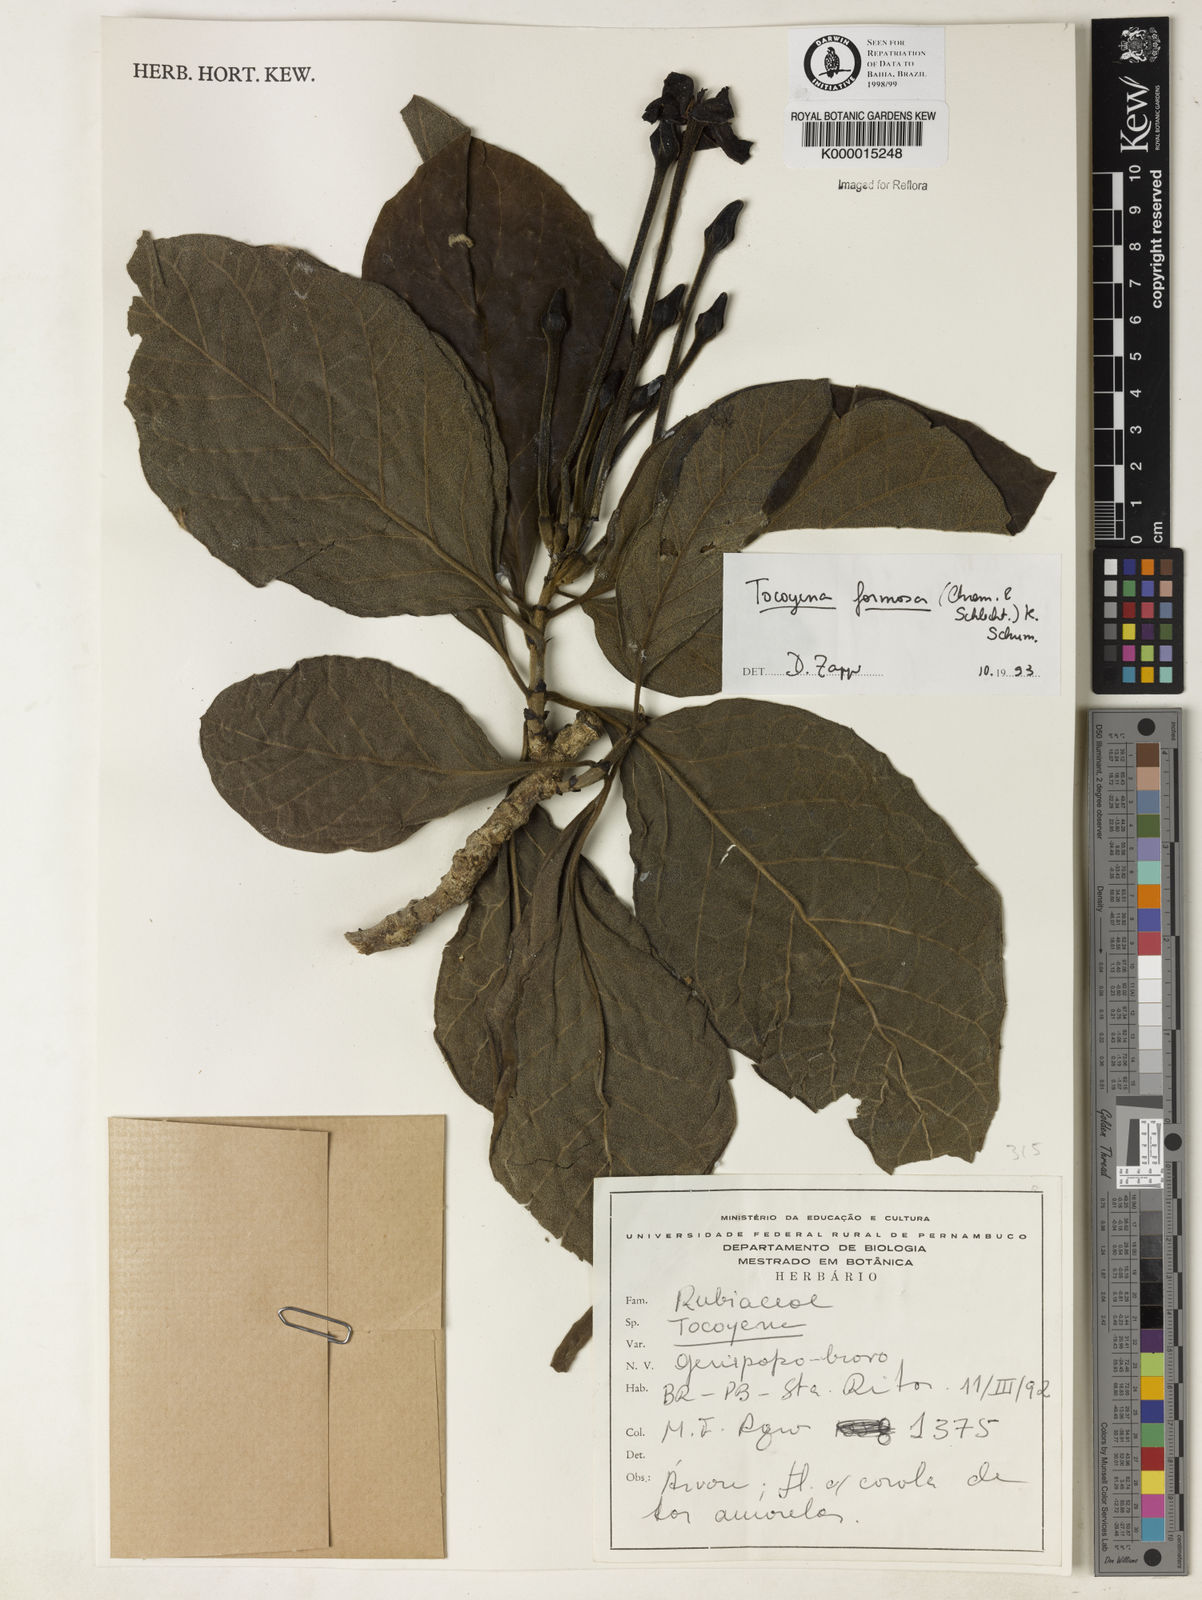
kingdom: Plantae
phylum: Tracheophyta
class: Magnoliopsida
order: Gentianales
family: Rubiaceae
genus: Tocoyena
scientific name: Tocoyena formosa
